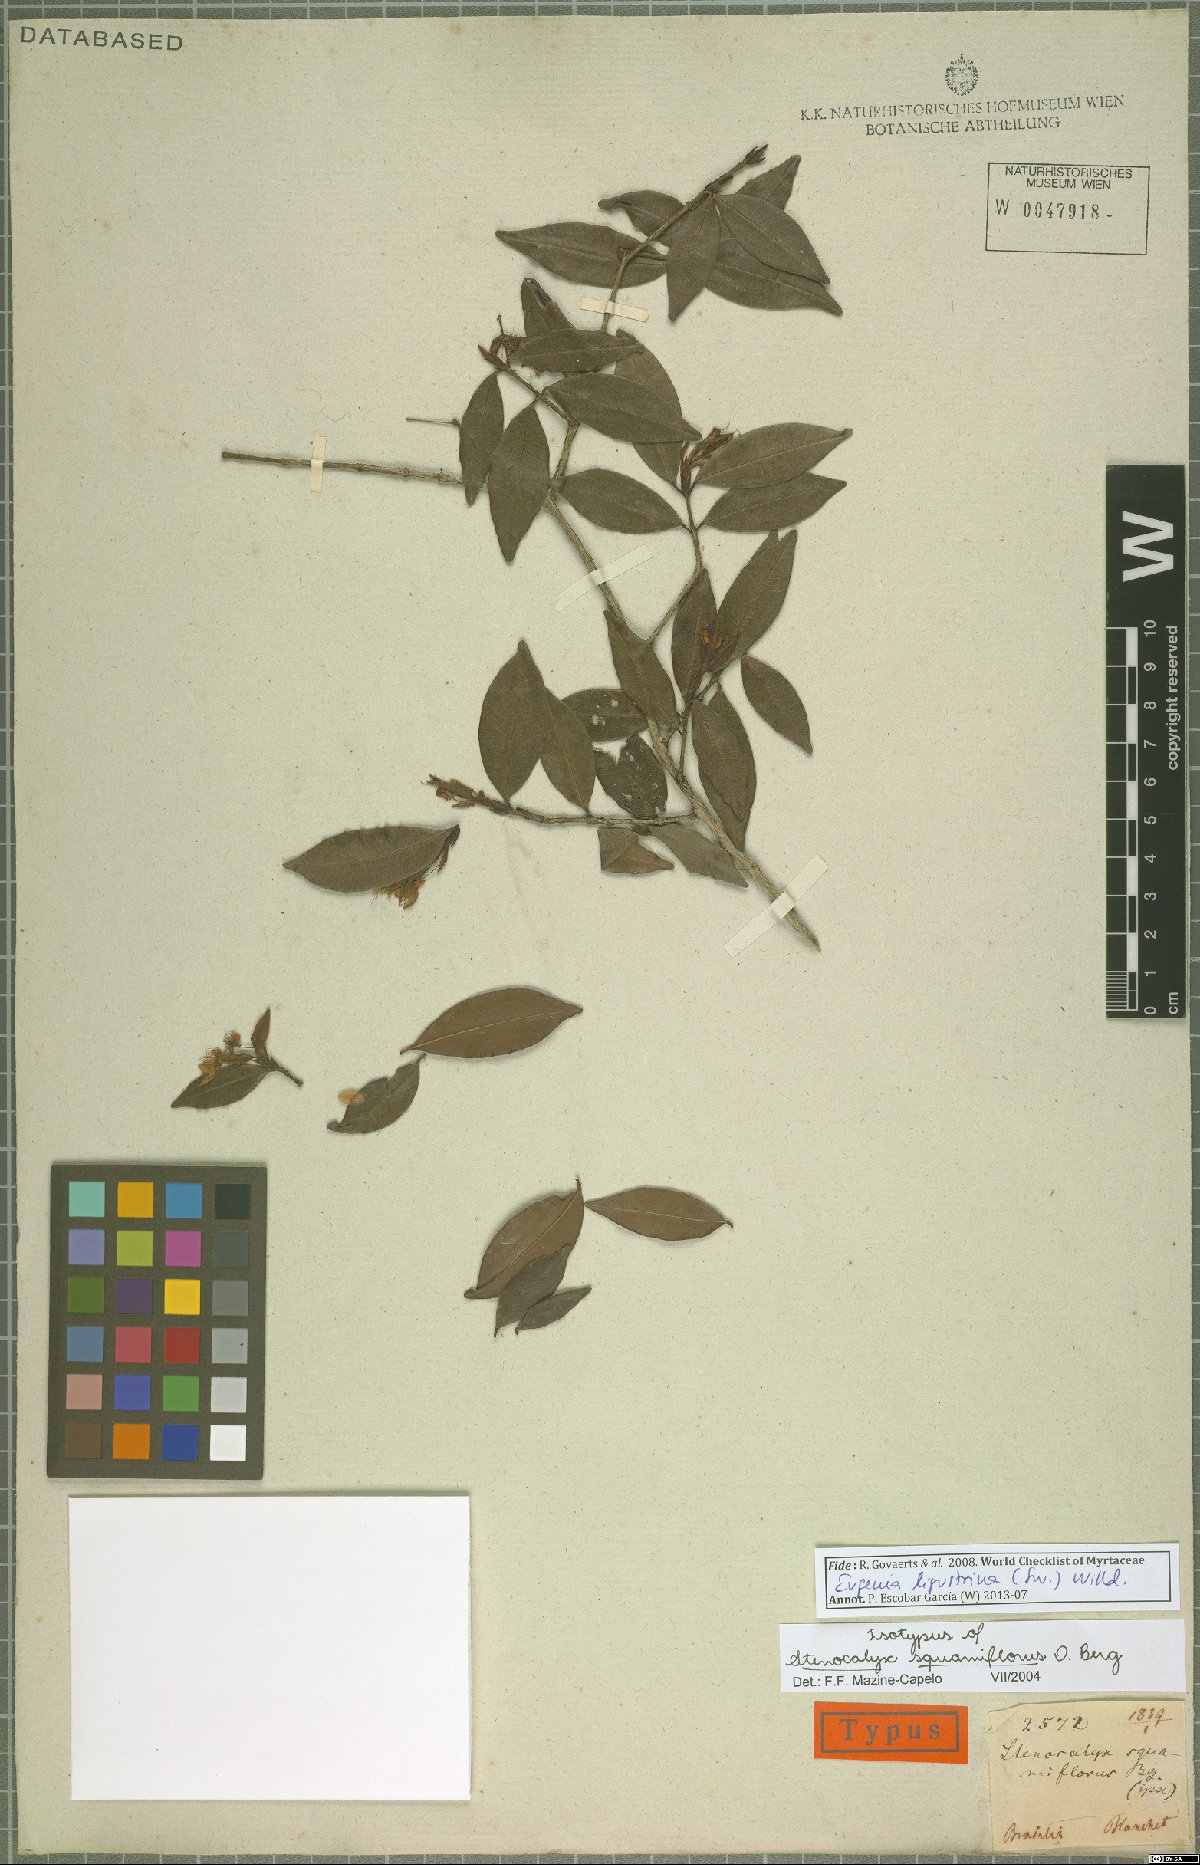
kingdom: Plantae
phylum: Tracheophyta
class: Magnoliopsida
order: Myrtales
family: Myrtaceae
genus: Eugenia
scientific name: Eugenia ligustrina
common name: Privet stopper
